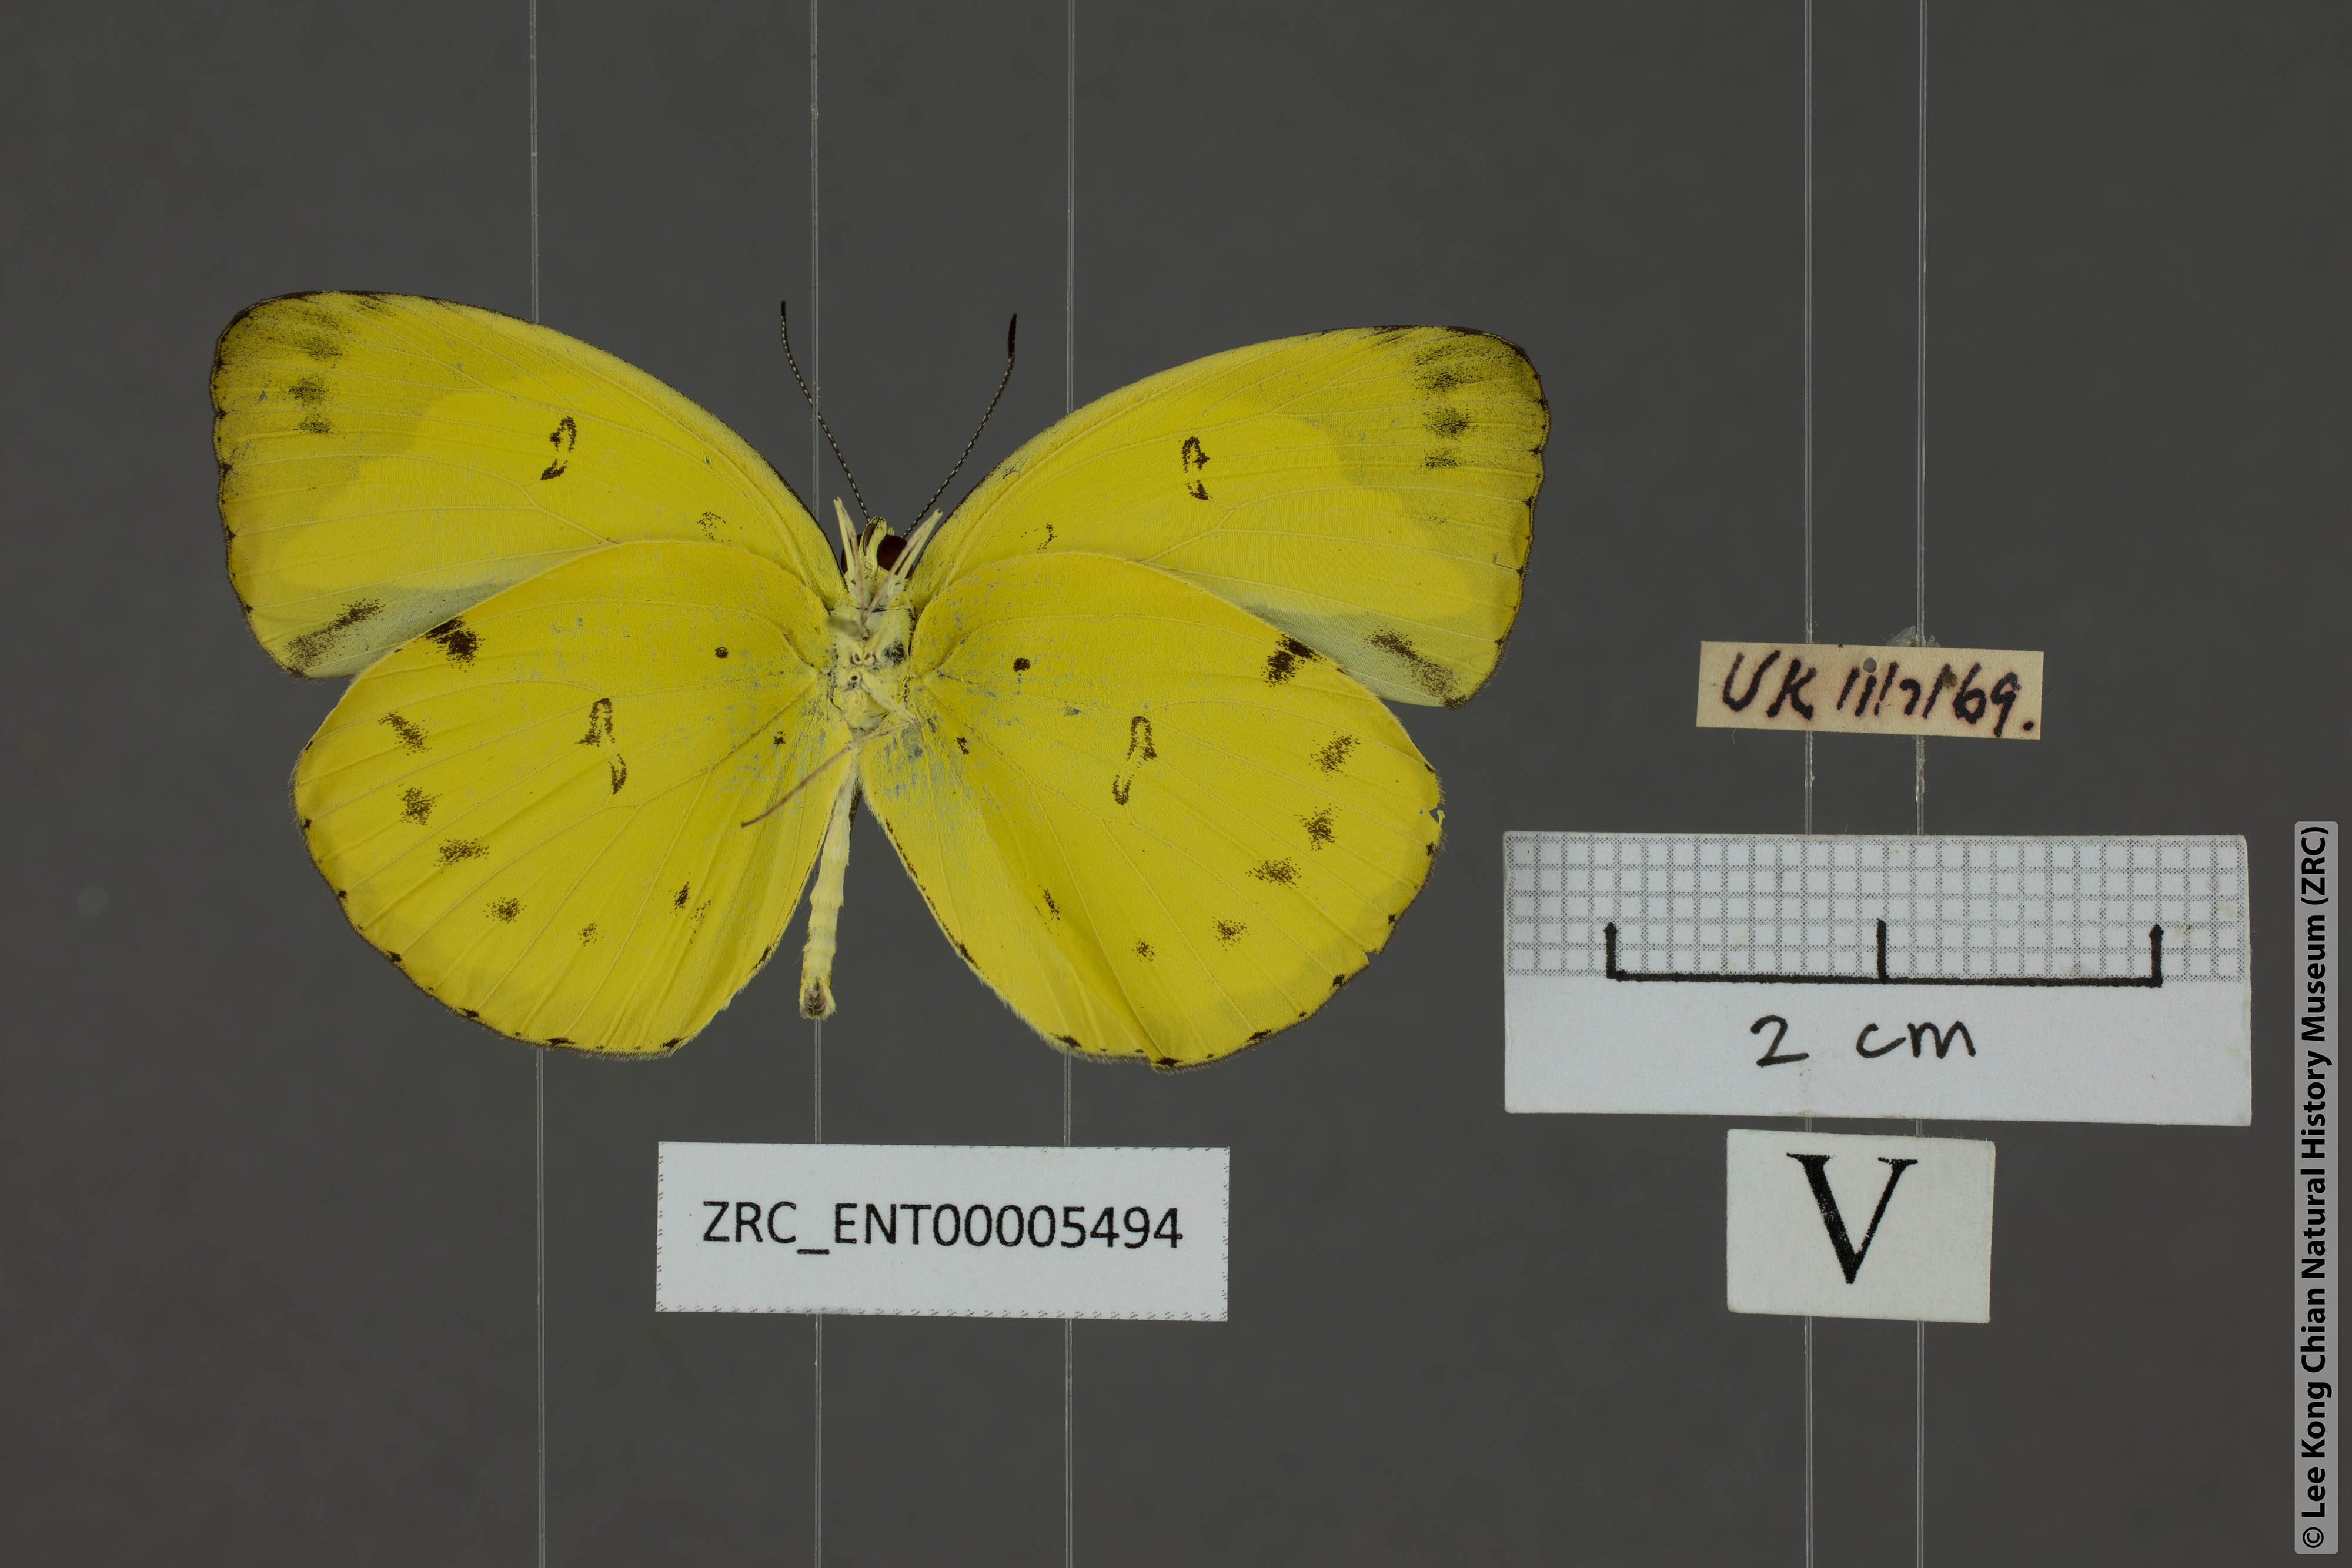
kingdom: Animalia
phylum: Arthropoda
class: Insecta
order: Lepidoptera
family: Pieridae
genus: Eurema
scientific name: Eurema nicevillei
